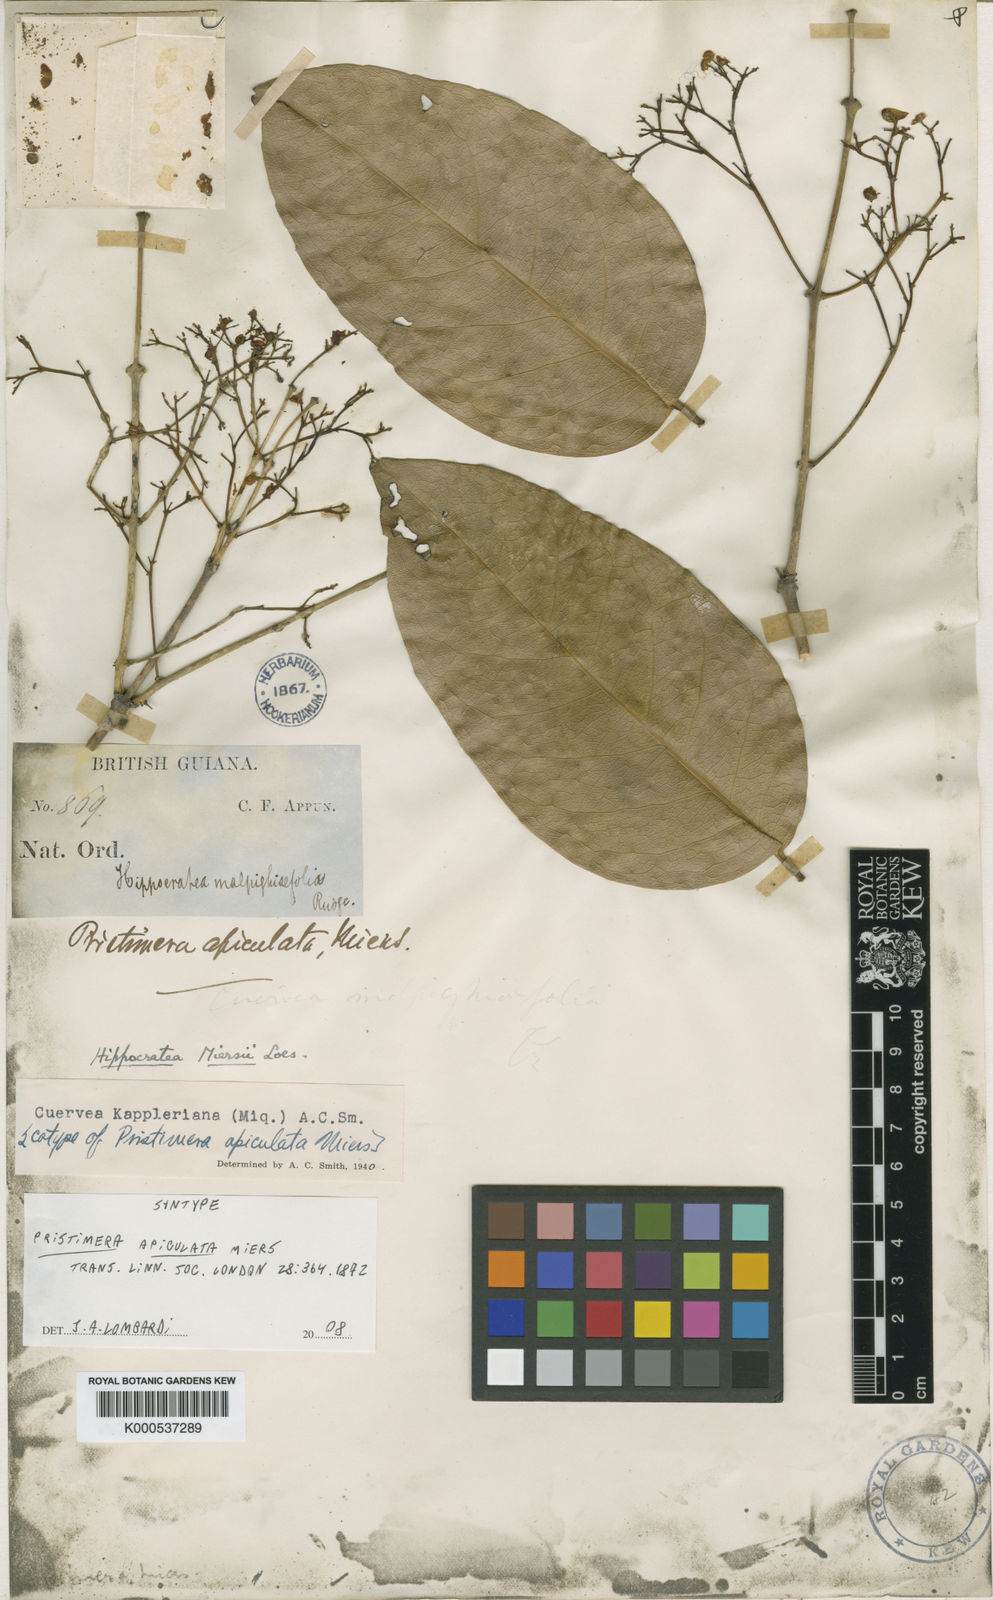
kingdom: Plantae
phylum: Tracheophyta
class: Magnoliopsida
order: Celastrales
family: Celastraceae
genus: Cuervea
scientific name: Cuervea kappleriana
